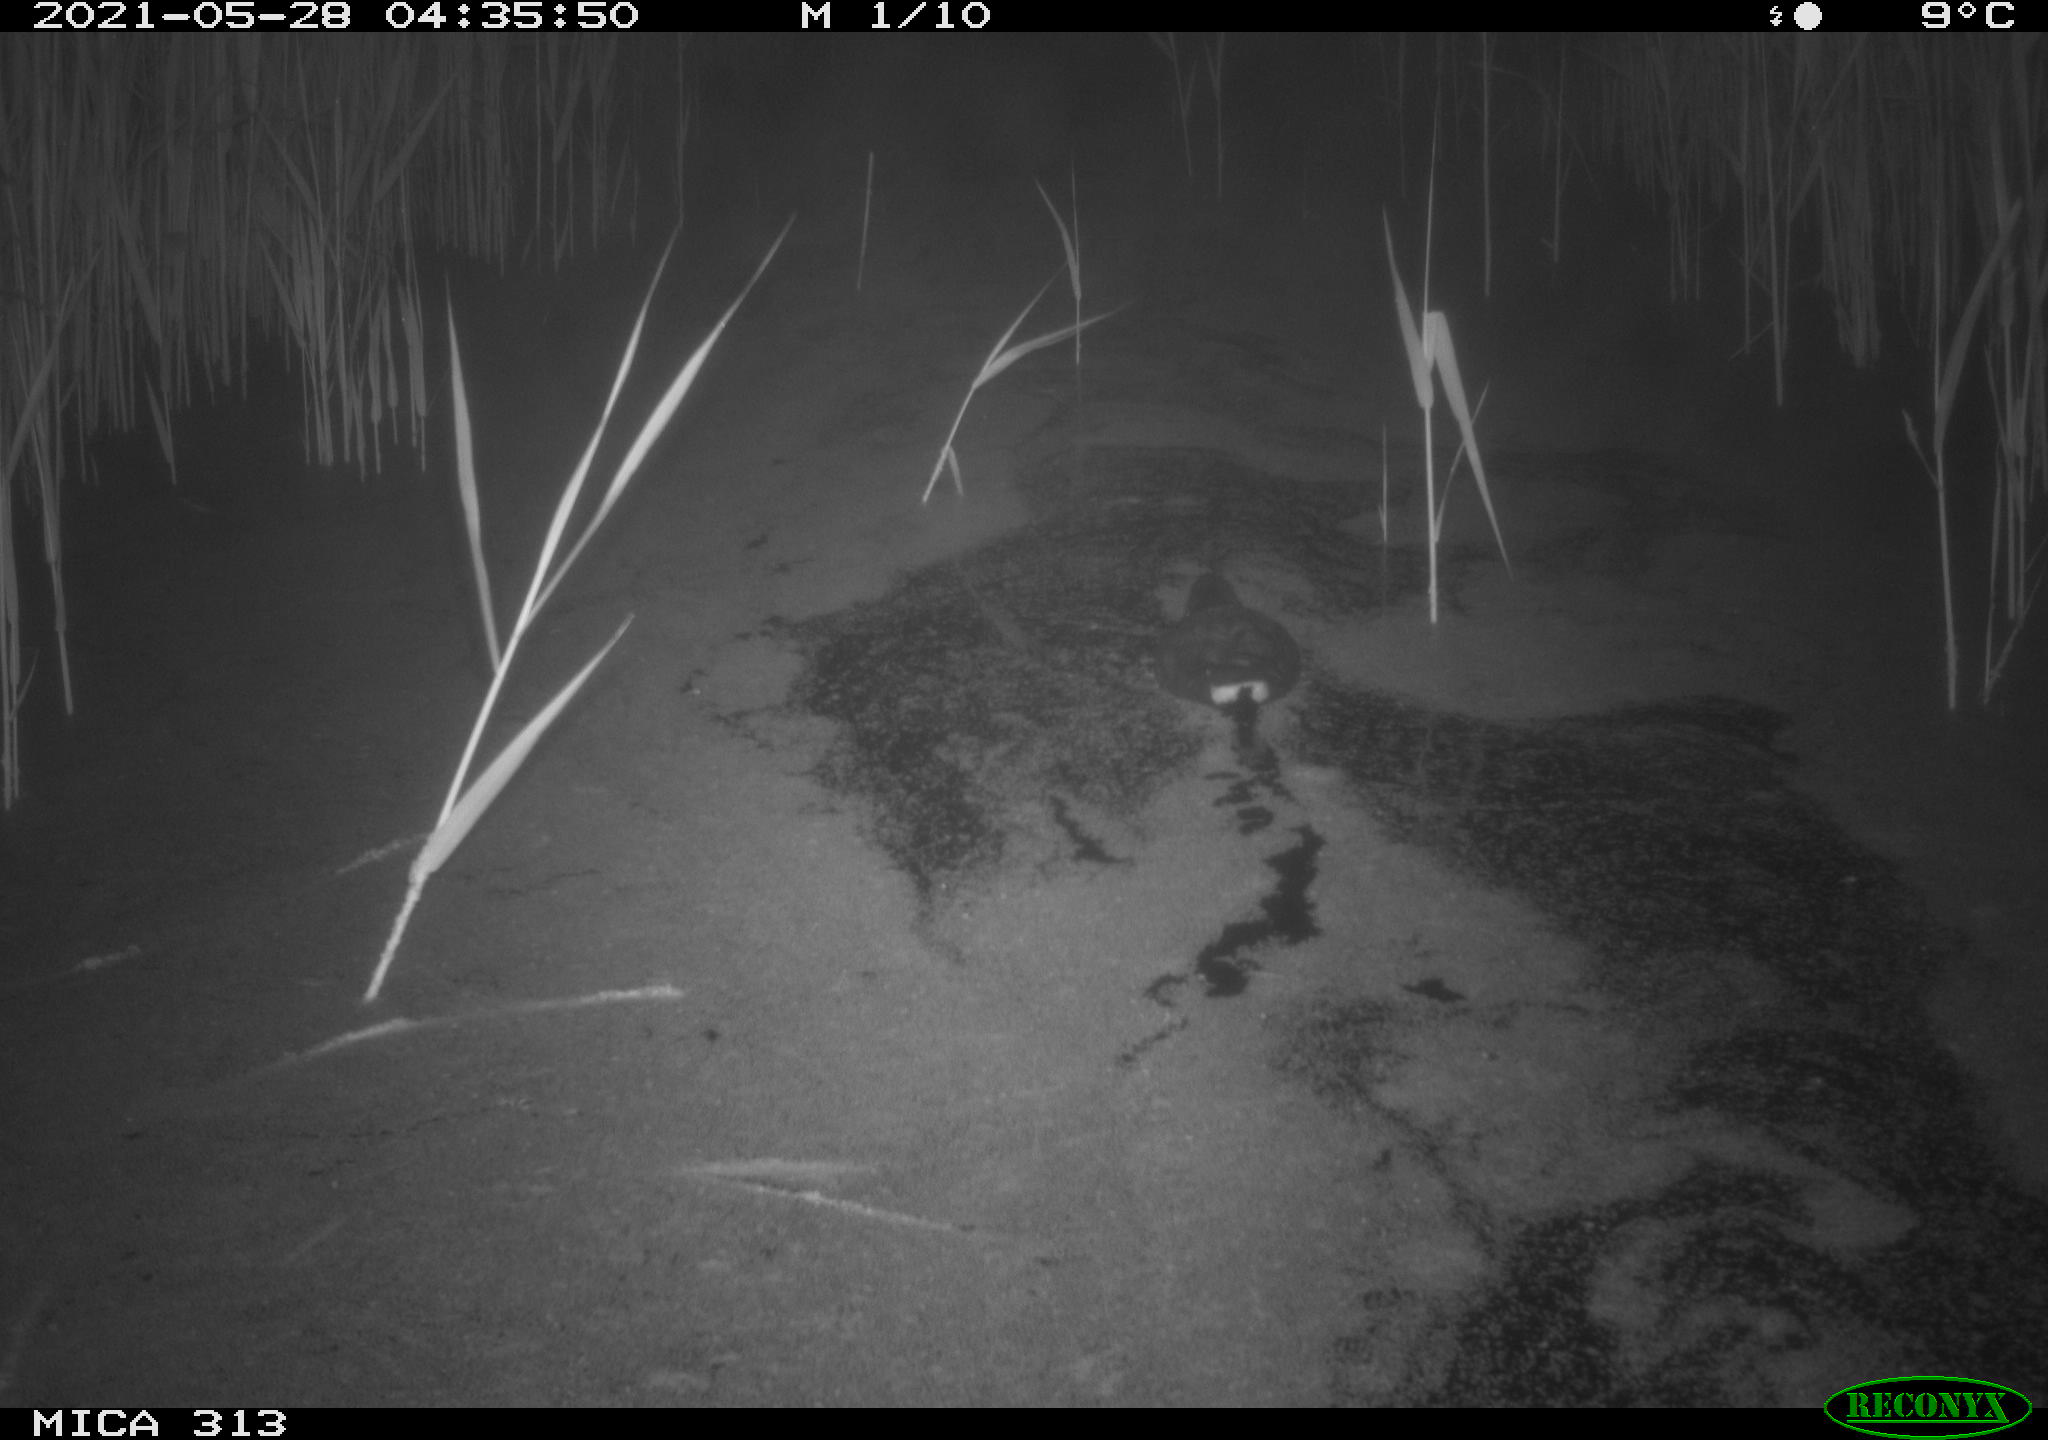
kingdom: Animalia
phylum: Chordata
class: Aves
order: Gruiformes
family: Rallidae
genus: Gallinula
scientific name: Gallinula chloropus
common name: Common moorhen
